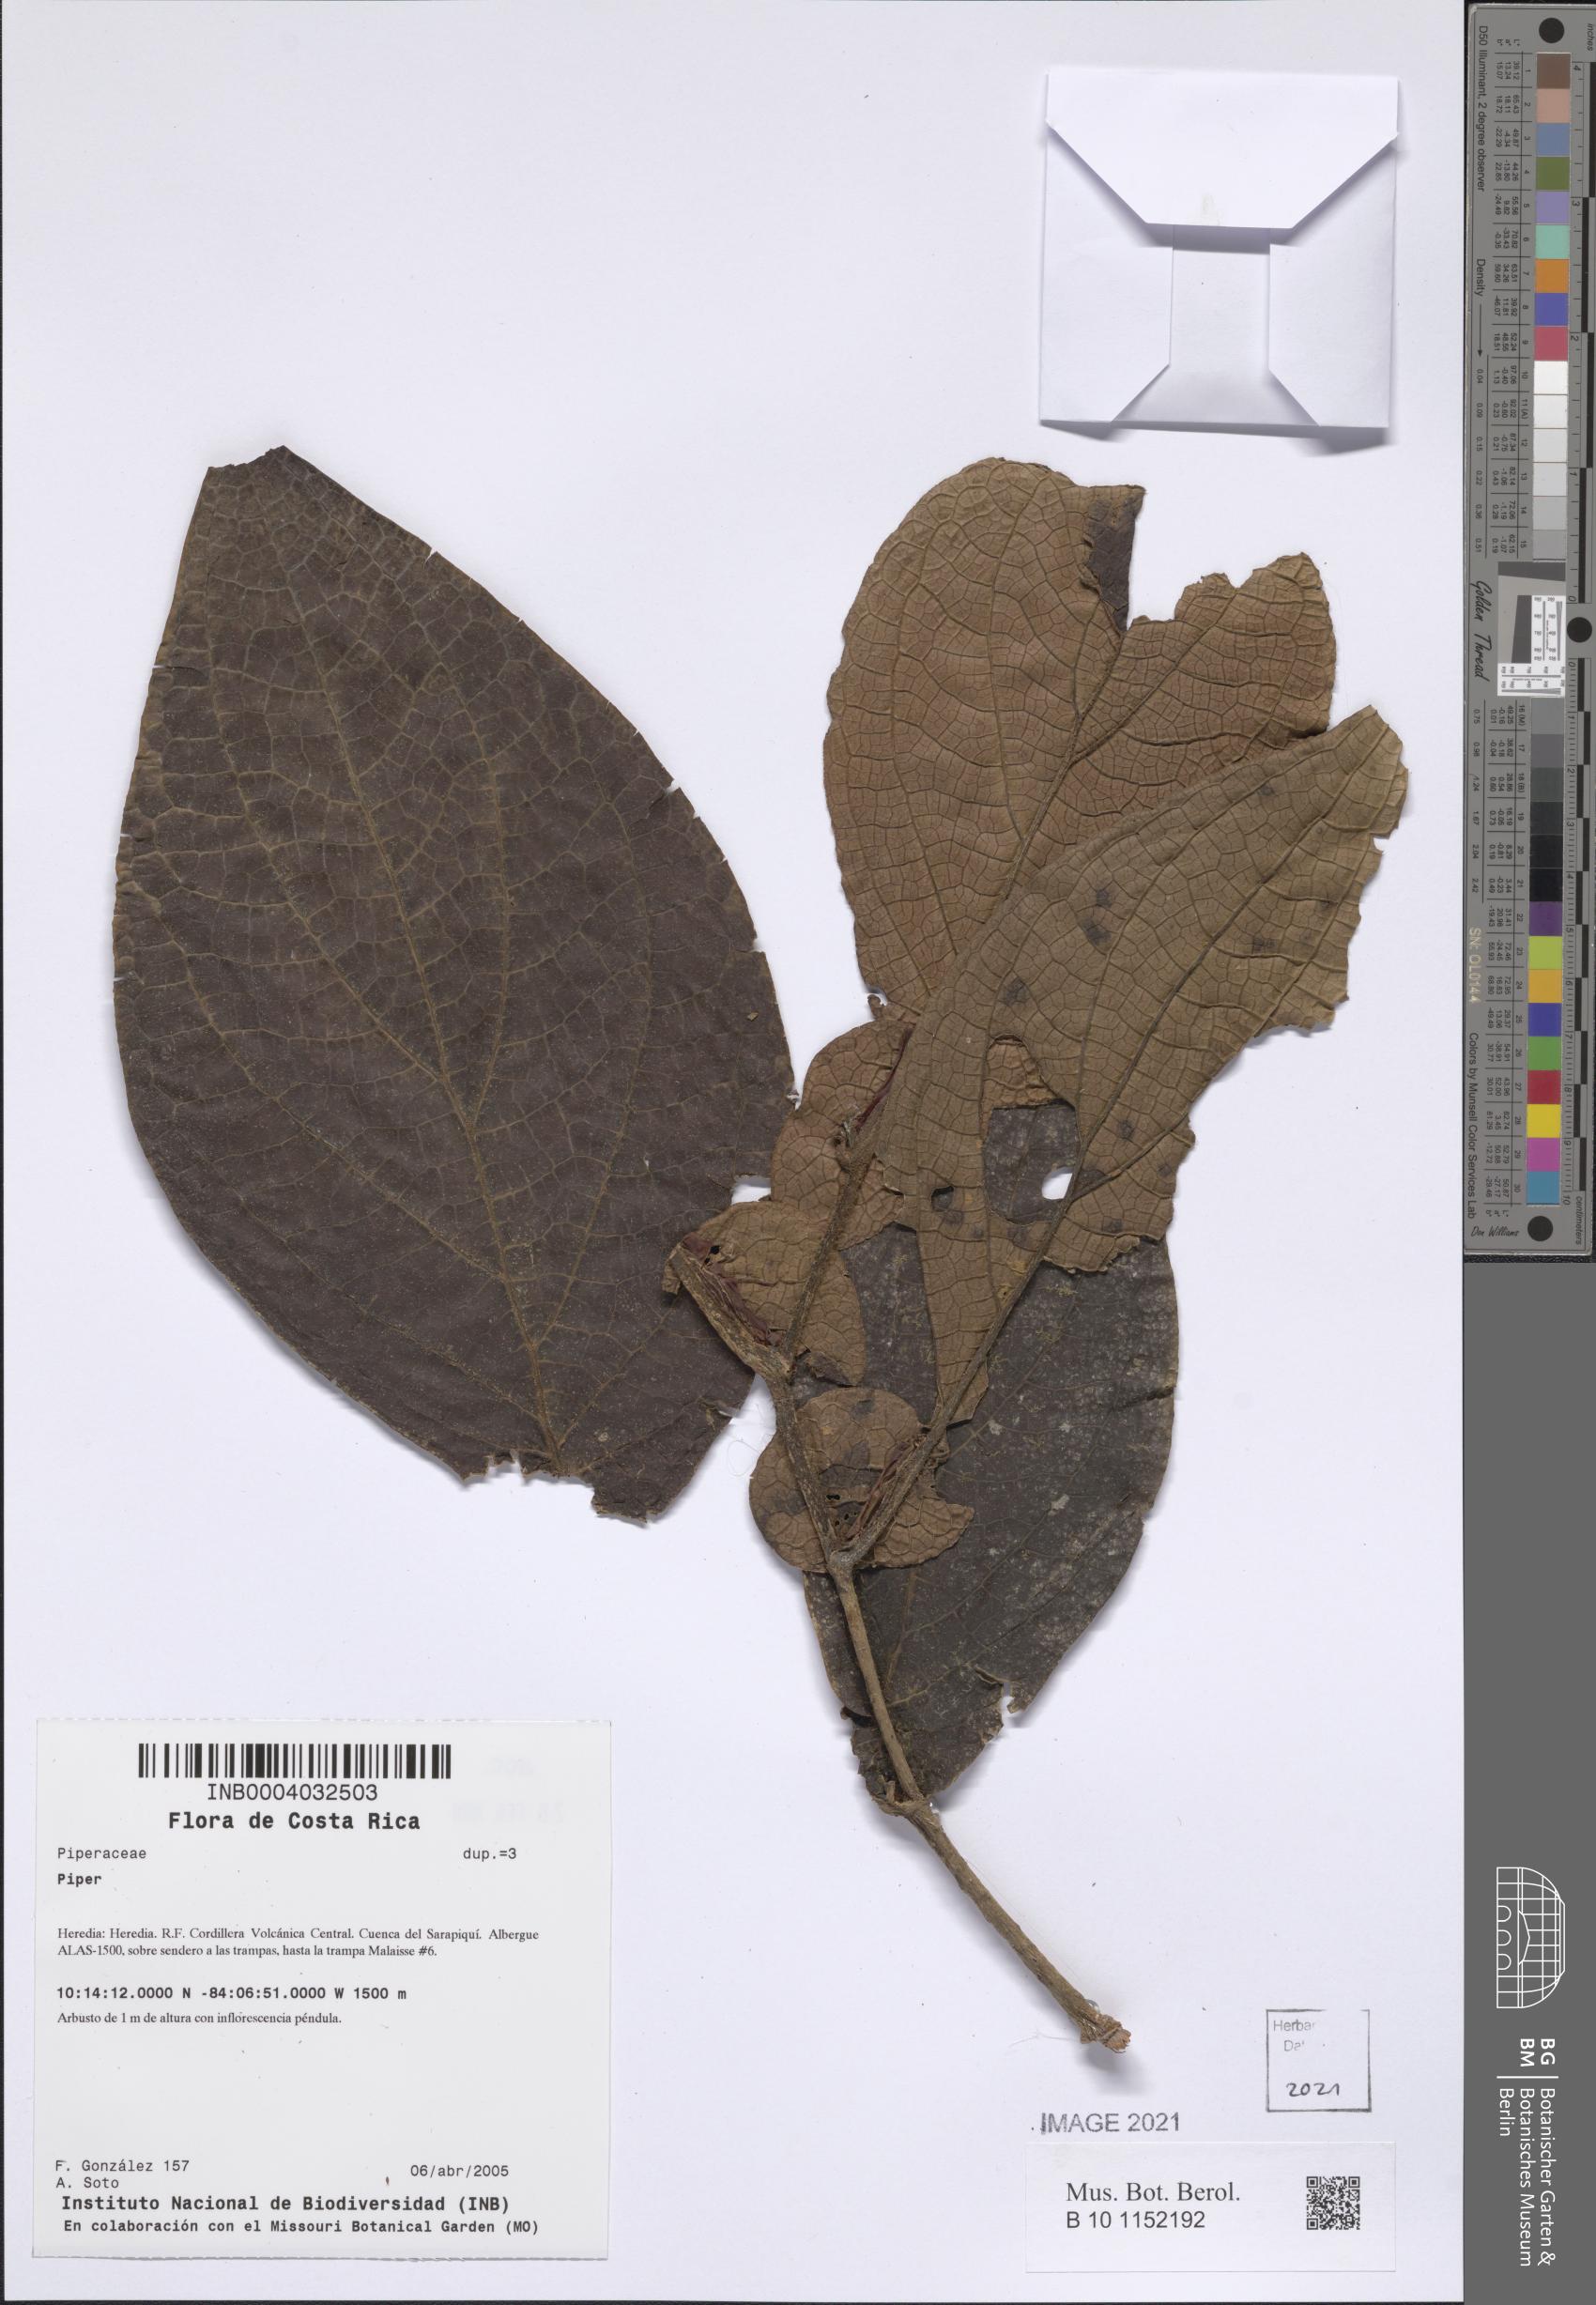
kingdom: Plantae
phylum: Tracheophyta
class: Magnoliopsida
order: Piperales
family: Piperaceae
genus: Piper
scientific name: Piper
